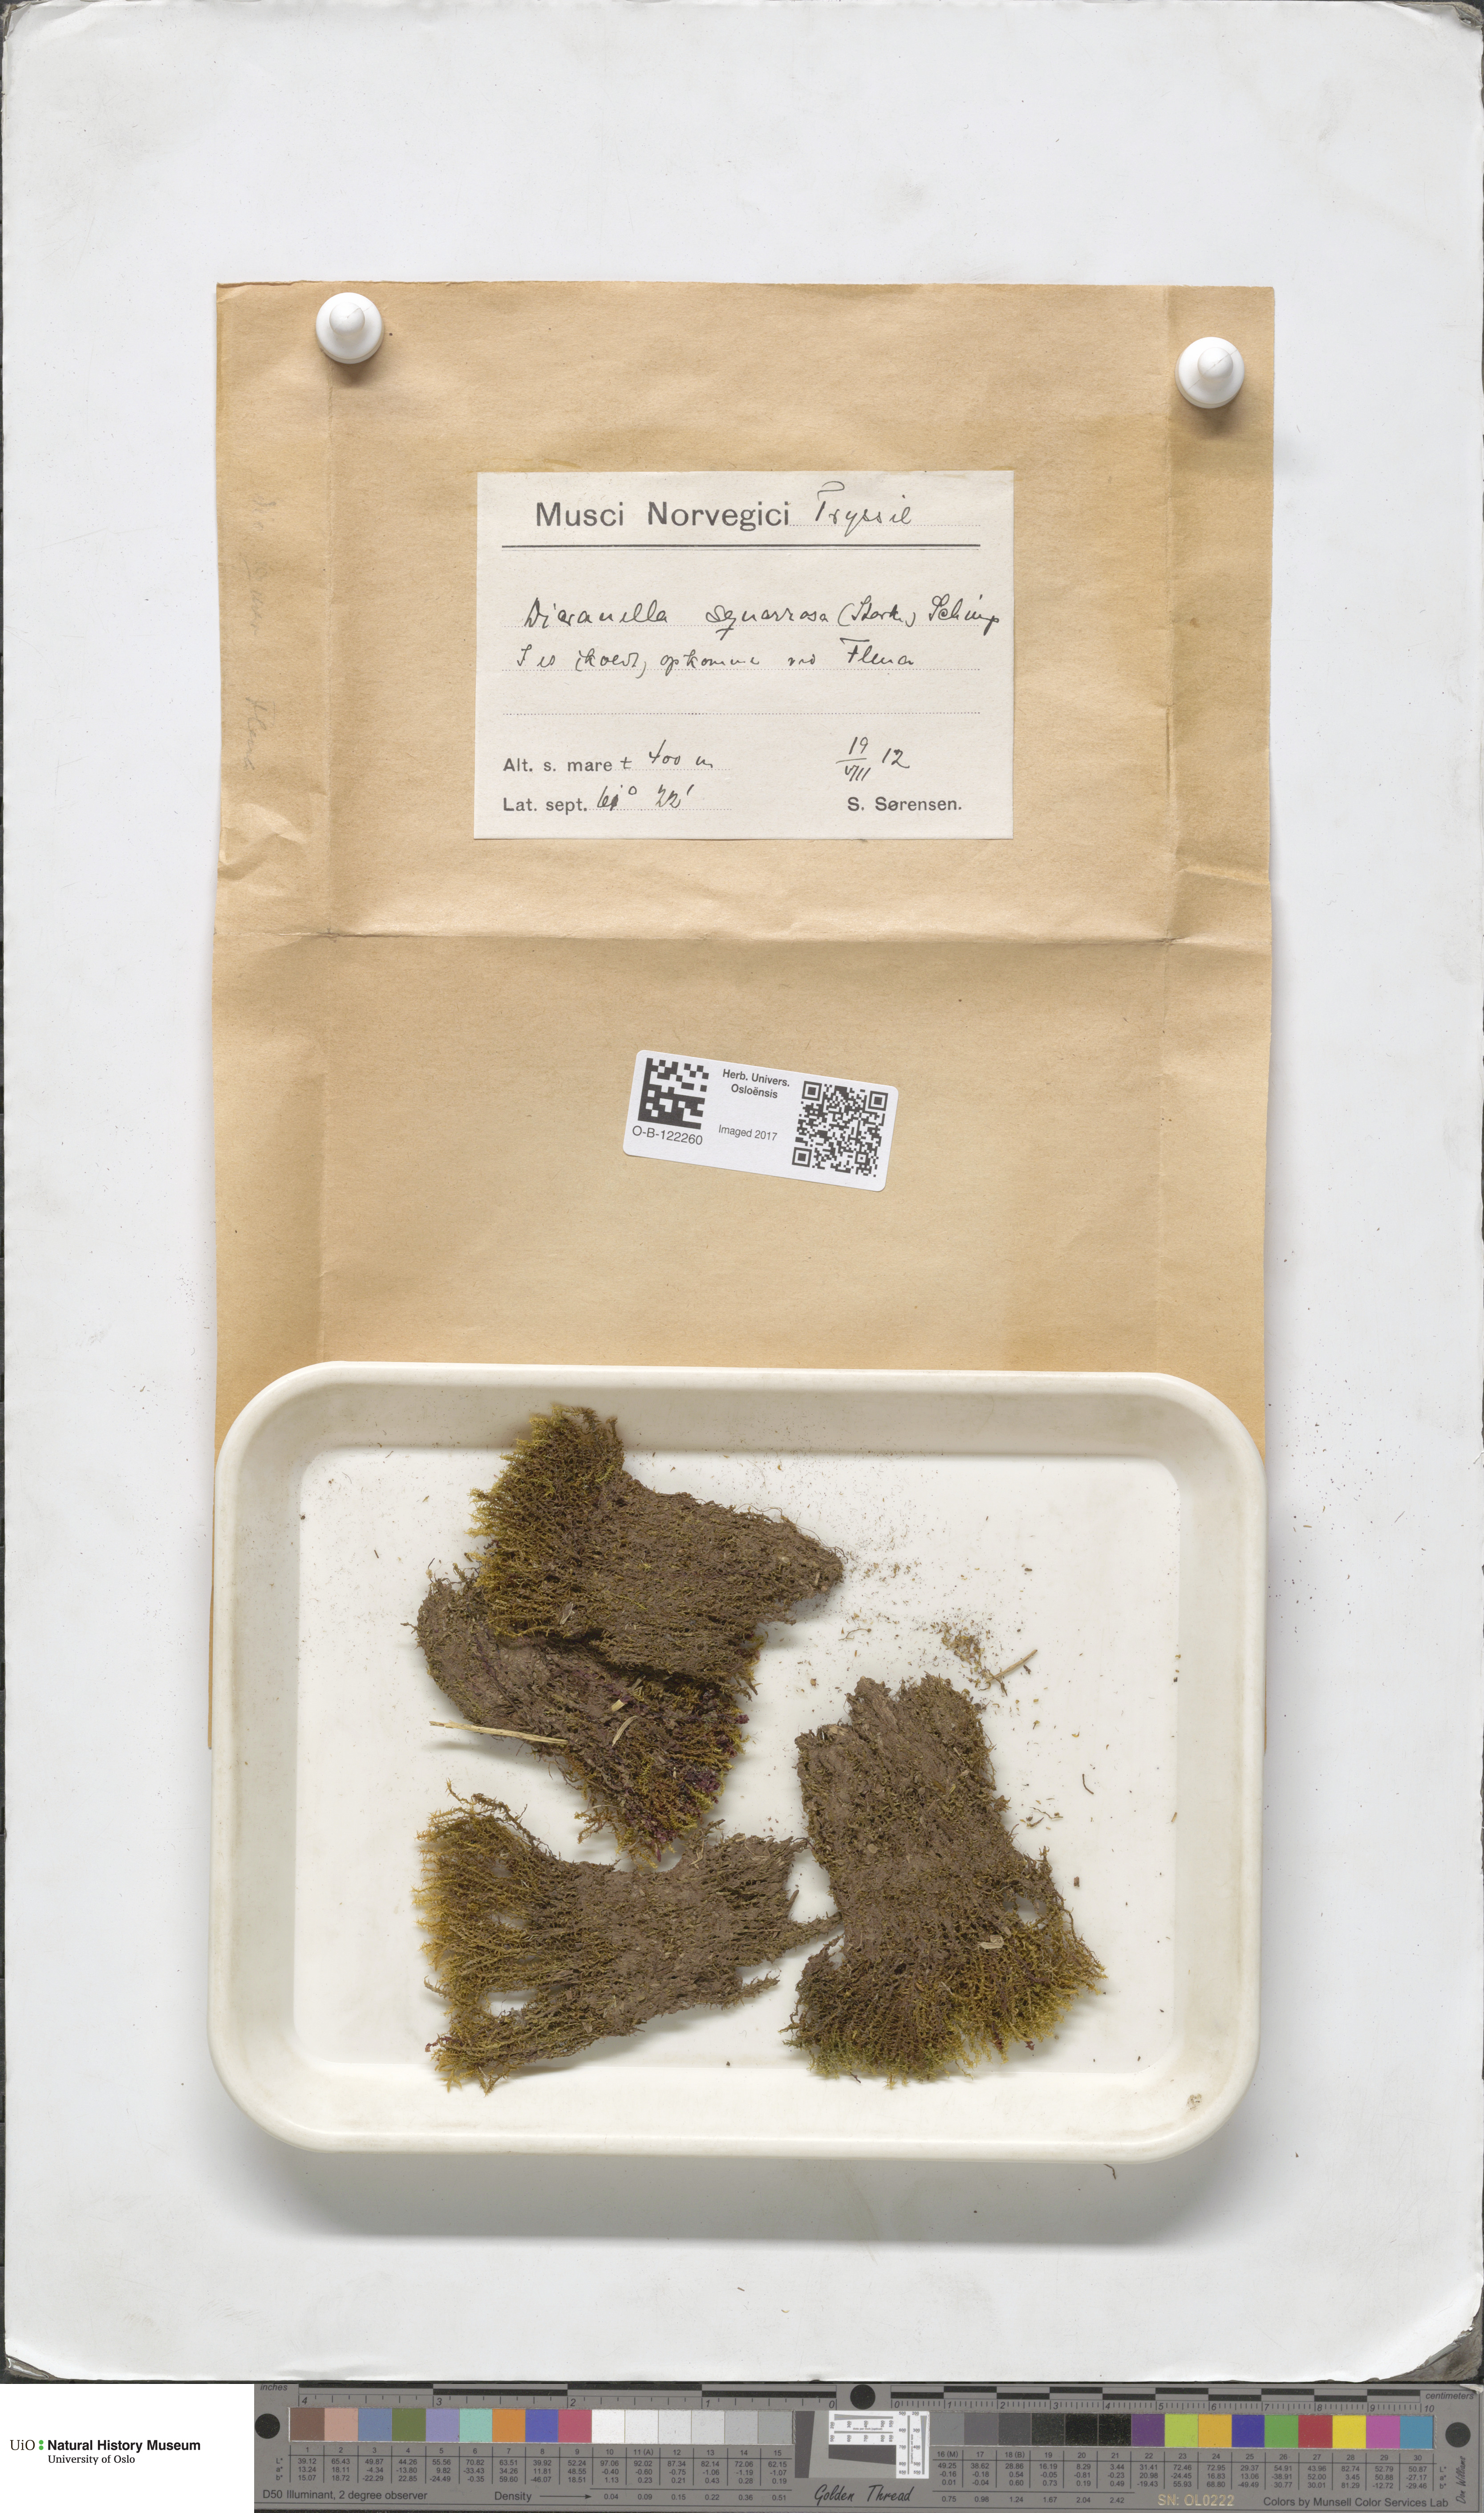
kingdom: Plantae
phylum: Bryophyta
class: Bryopsida
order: Dicranales
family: Aongstroemiaceae
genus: Diobelonella
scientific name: Diobelonella palustris
